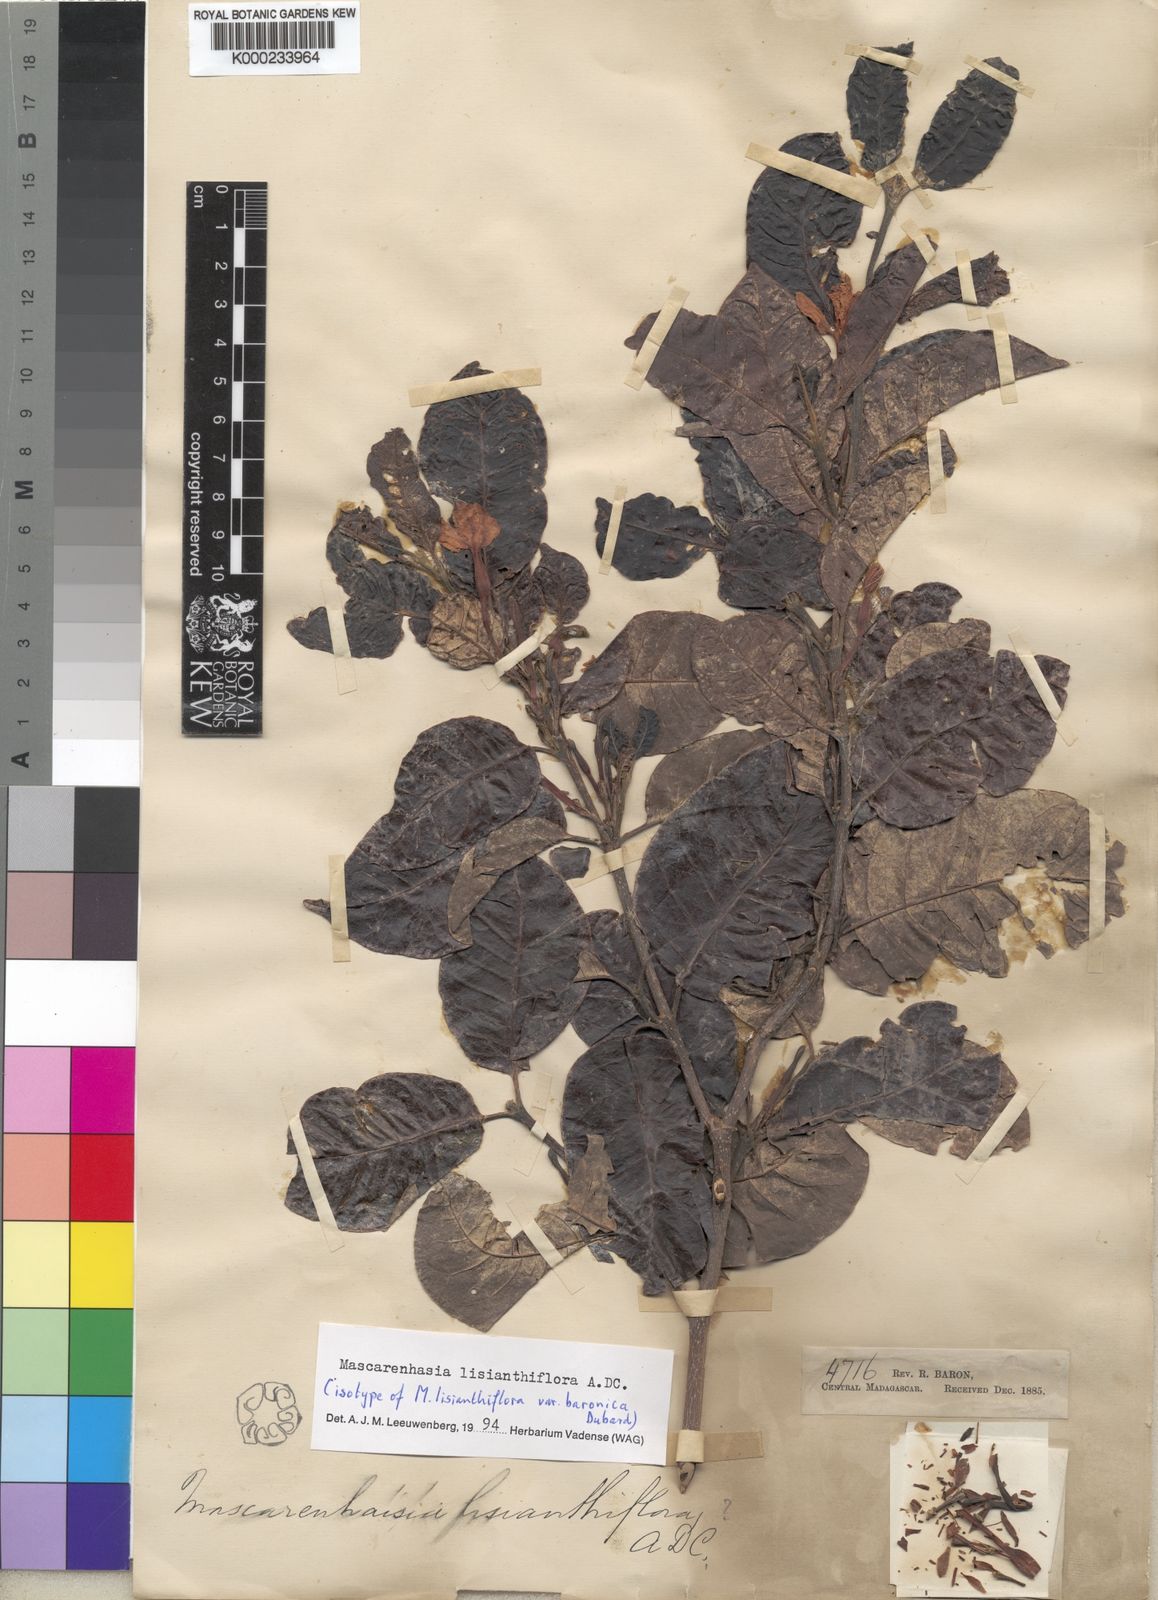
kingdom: Plantae
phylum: Tracheophyta
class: Magnoliopsida
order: Gentianales
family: Apocynaceae
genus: Mascarenhasia
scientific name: Mascarenhasia lisianthiflora
